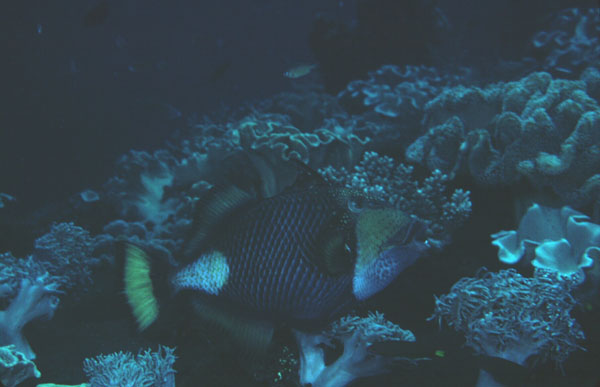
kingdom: Animalia
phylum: Chordata
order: Tetraodontiformes
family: Balistidae
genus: Balistoides
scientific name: Balistoides viridescens
